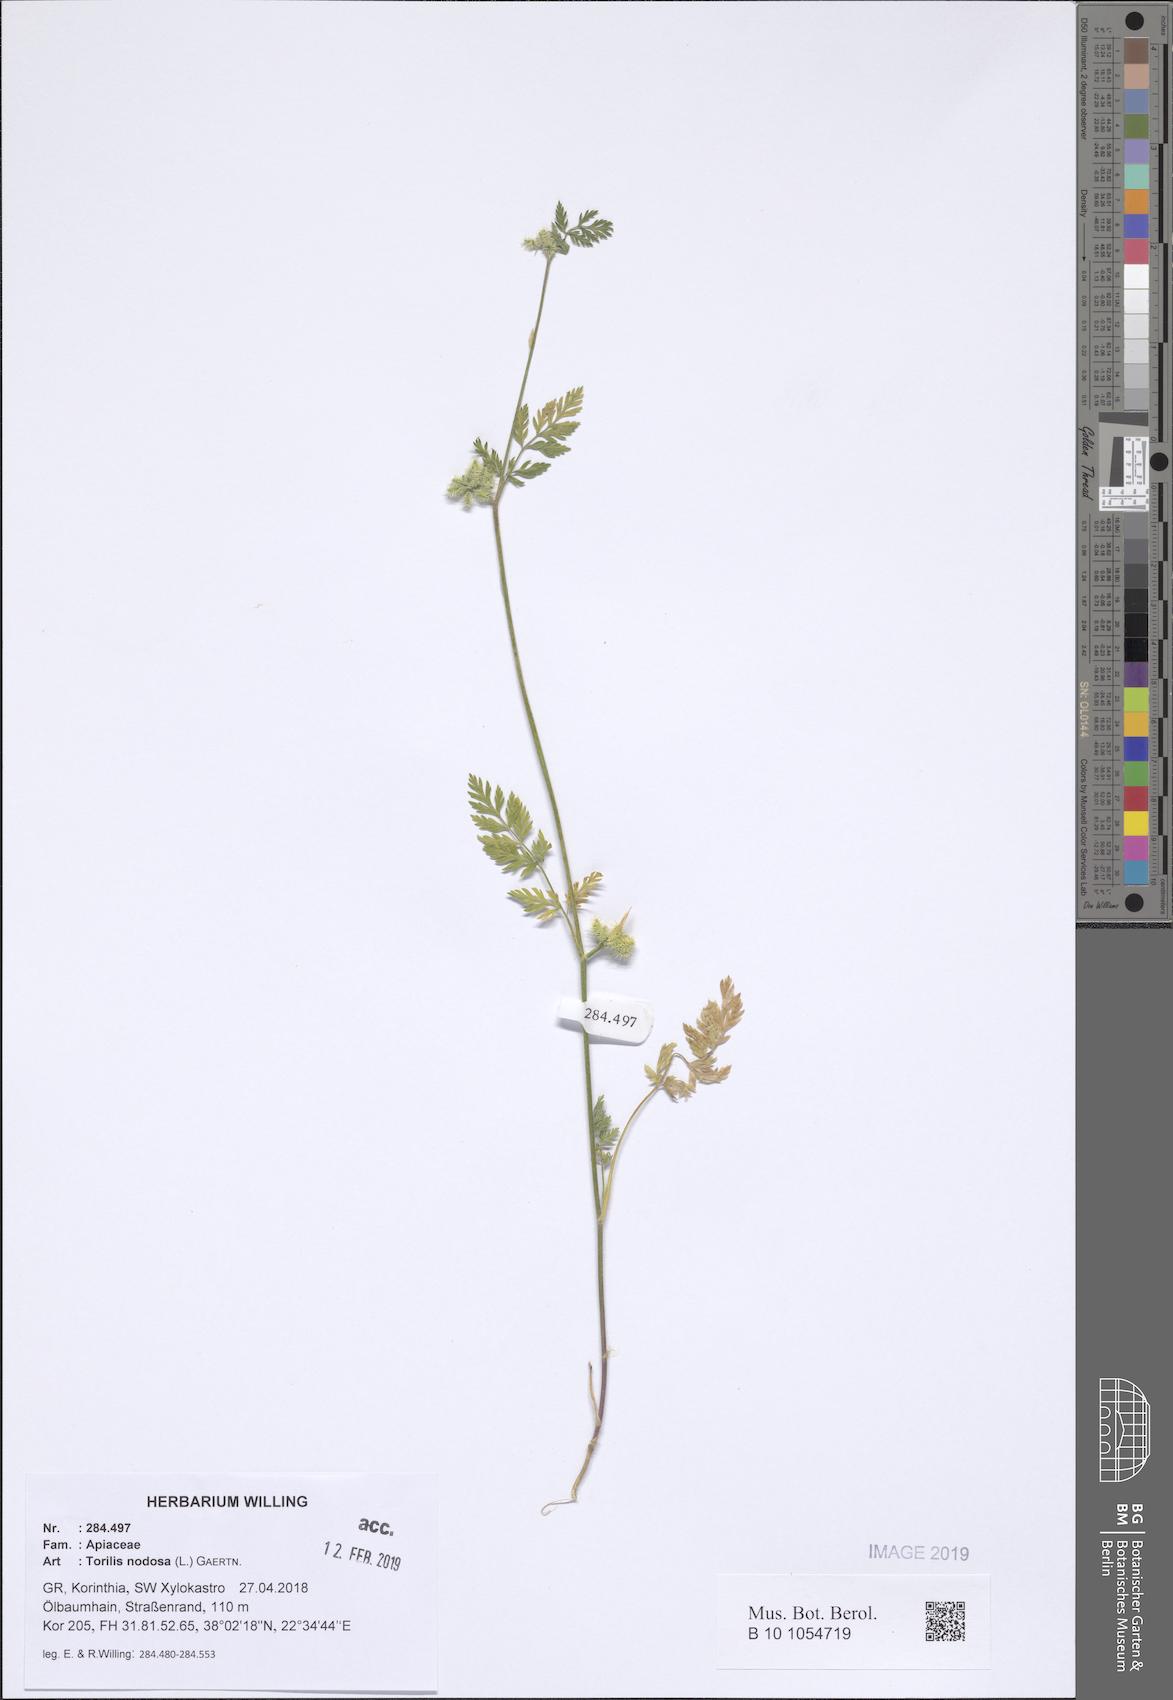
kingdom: Plantae
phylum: Tracheophyta
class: Magnoliopsida
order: Apiales
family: Apiaceae
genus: Torilis
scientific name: Torilis nodosa
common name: Knotted hedge-parsley
